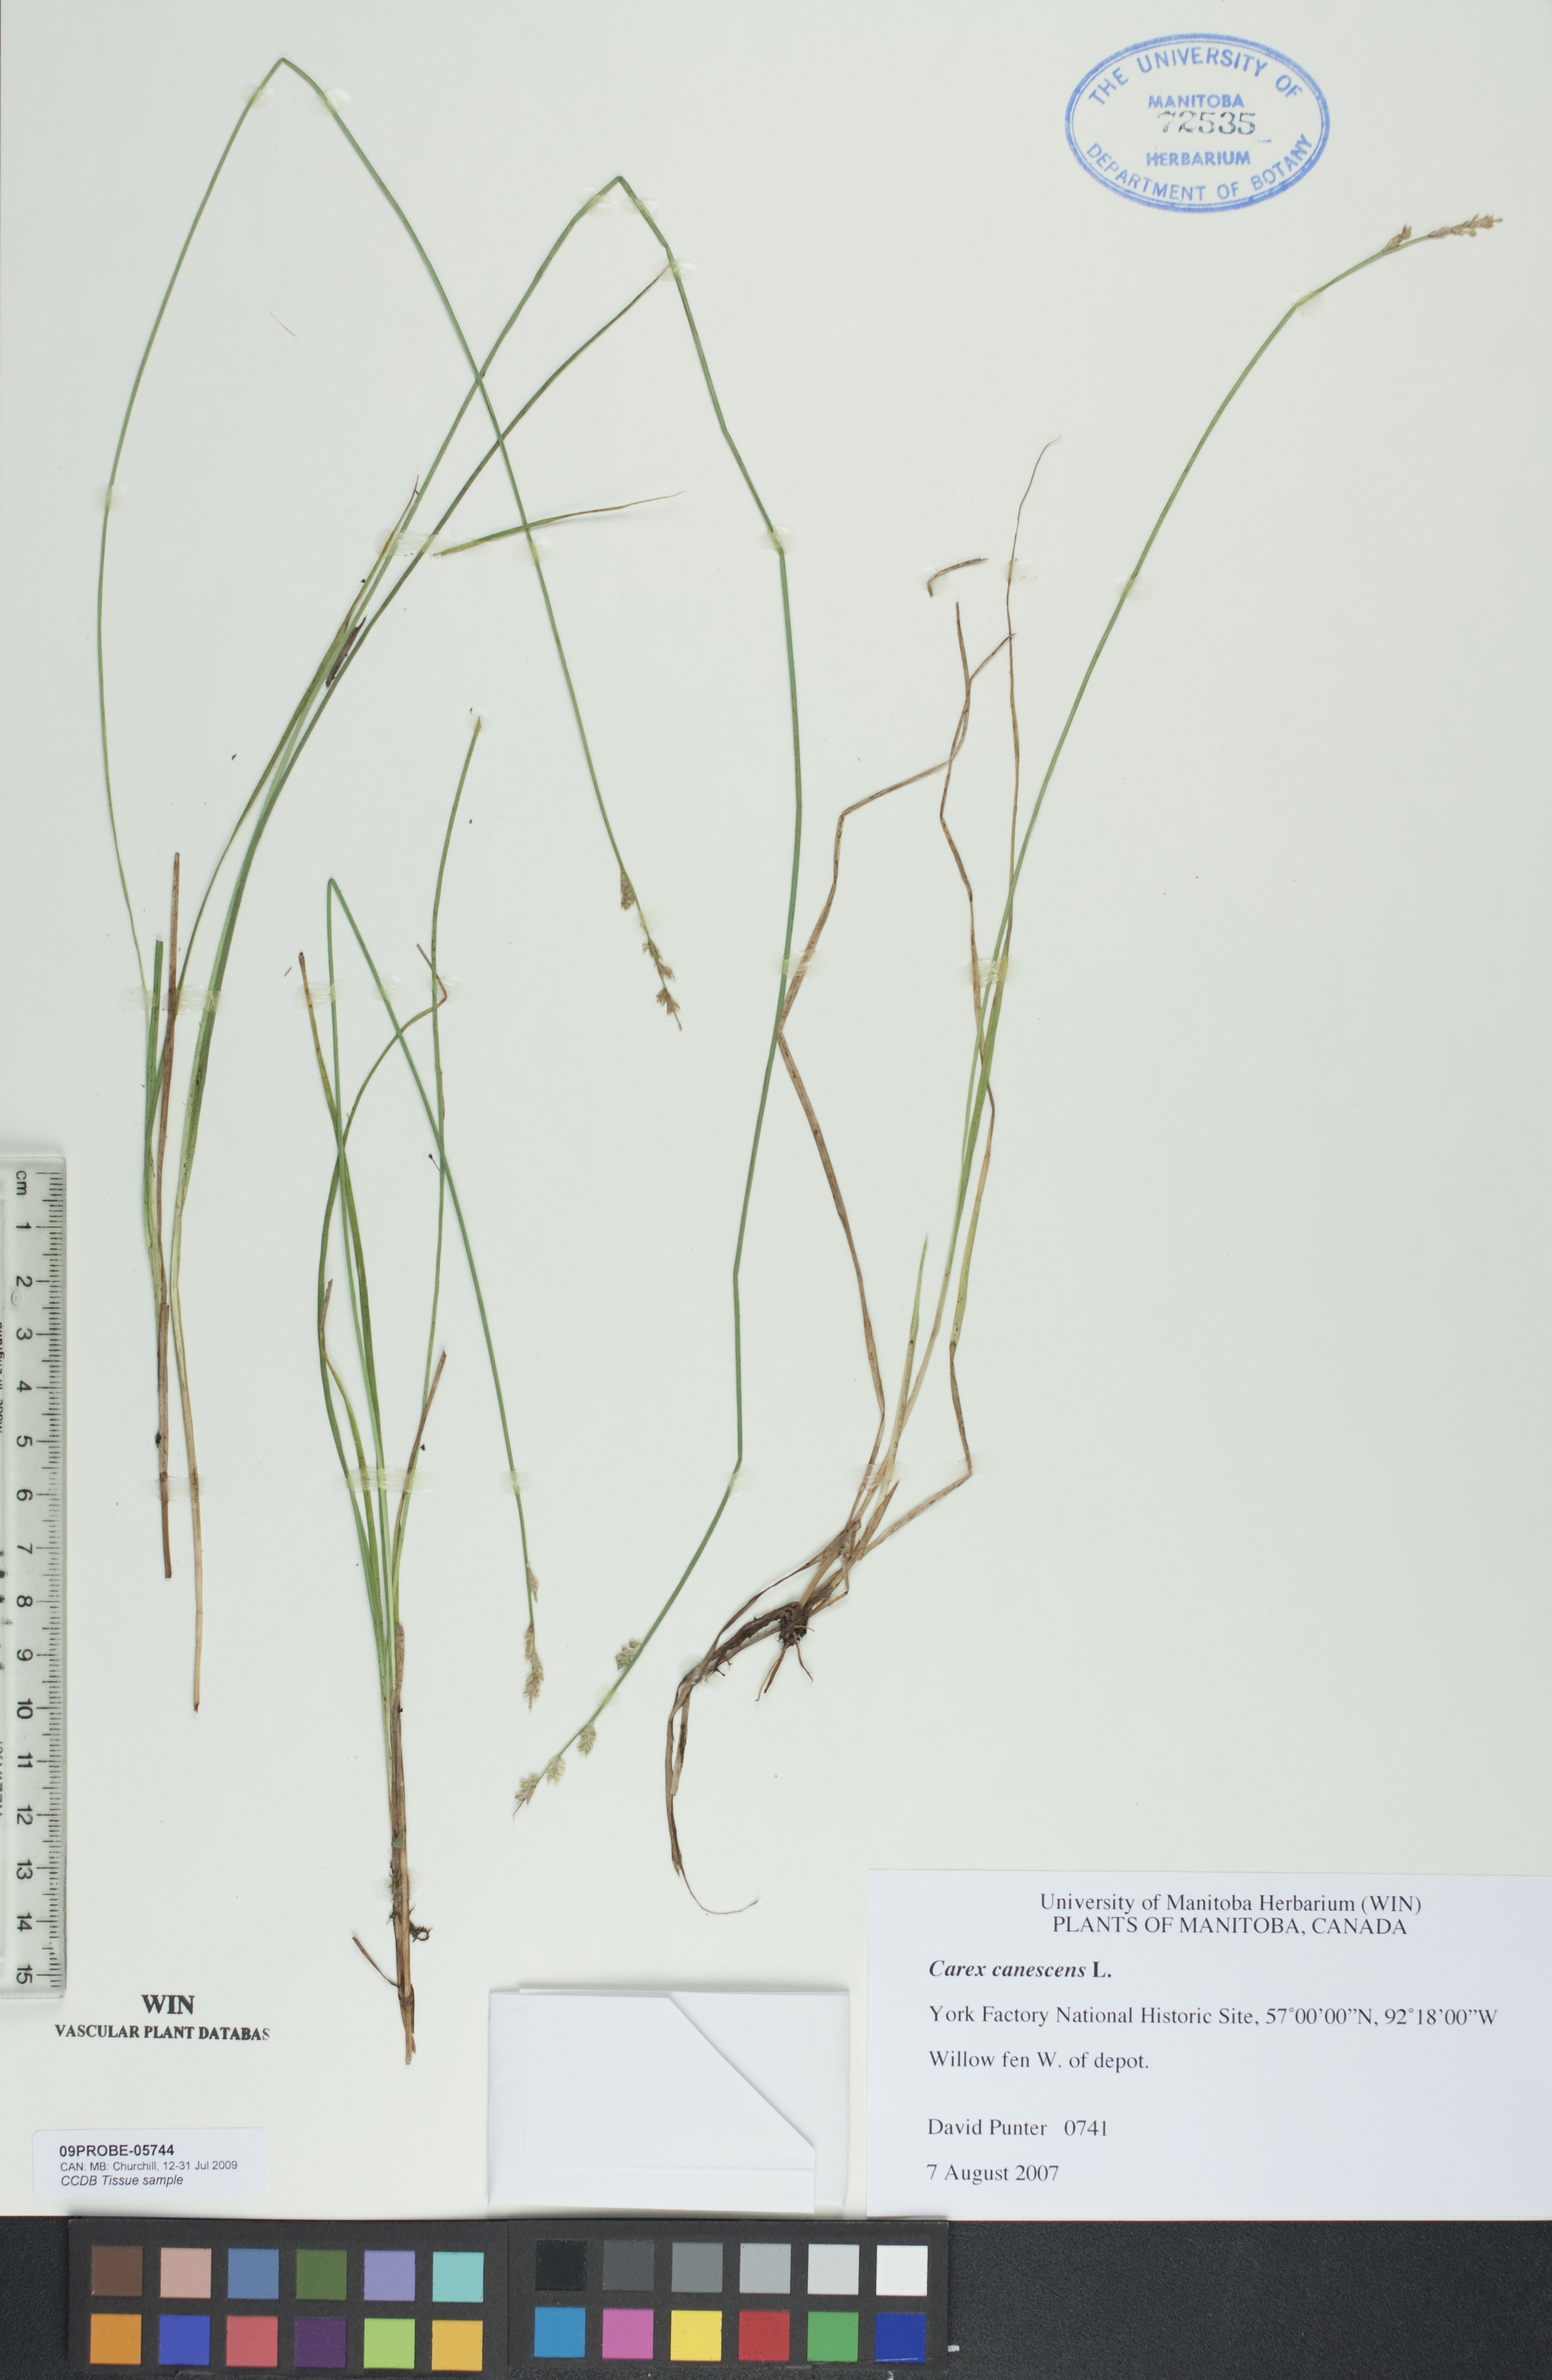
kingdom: Plantae
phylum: Tracheophyta
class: Liliopsida
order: Poales
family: Cyperaceae
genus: Carex
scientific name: Carex canescens
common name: White sedge
